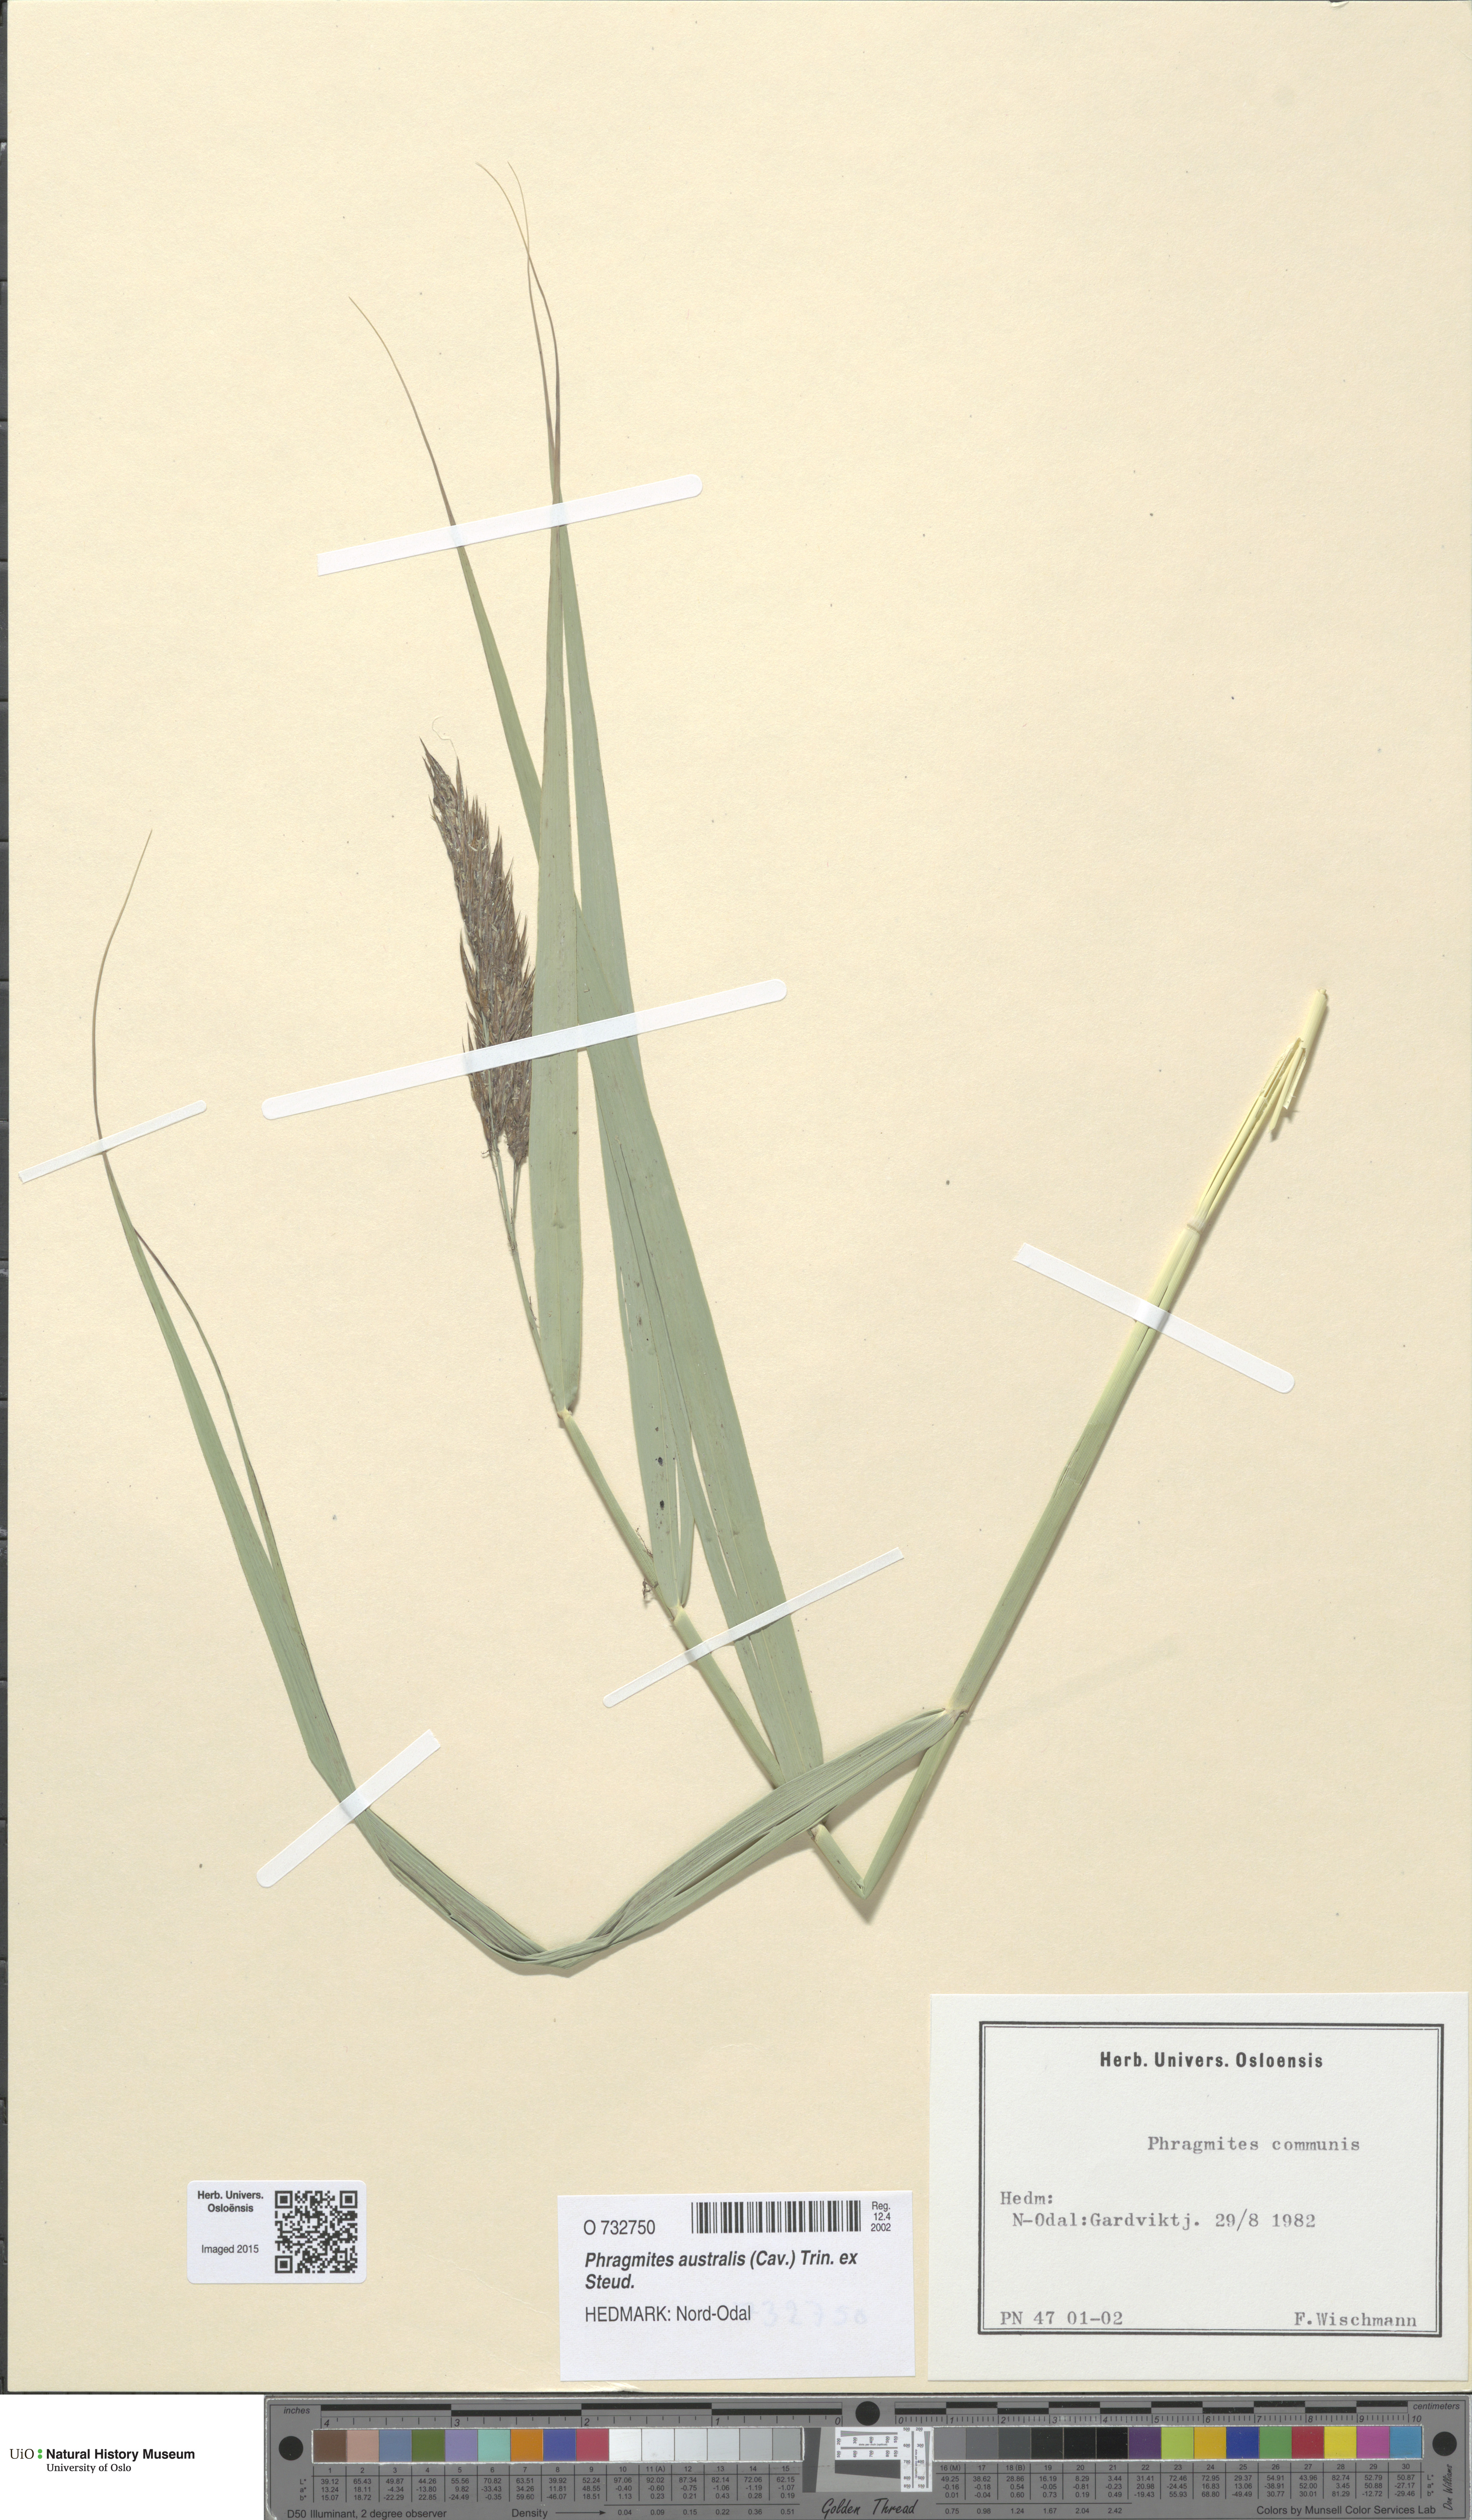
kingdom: Plantae
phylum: Tracheophyta
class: Liliopsida
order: Poales
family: Poaceae
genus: Phragmites
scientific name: Phragmites australis
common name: Common reed
